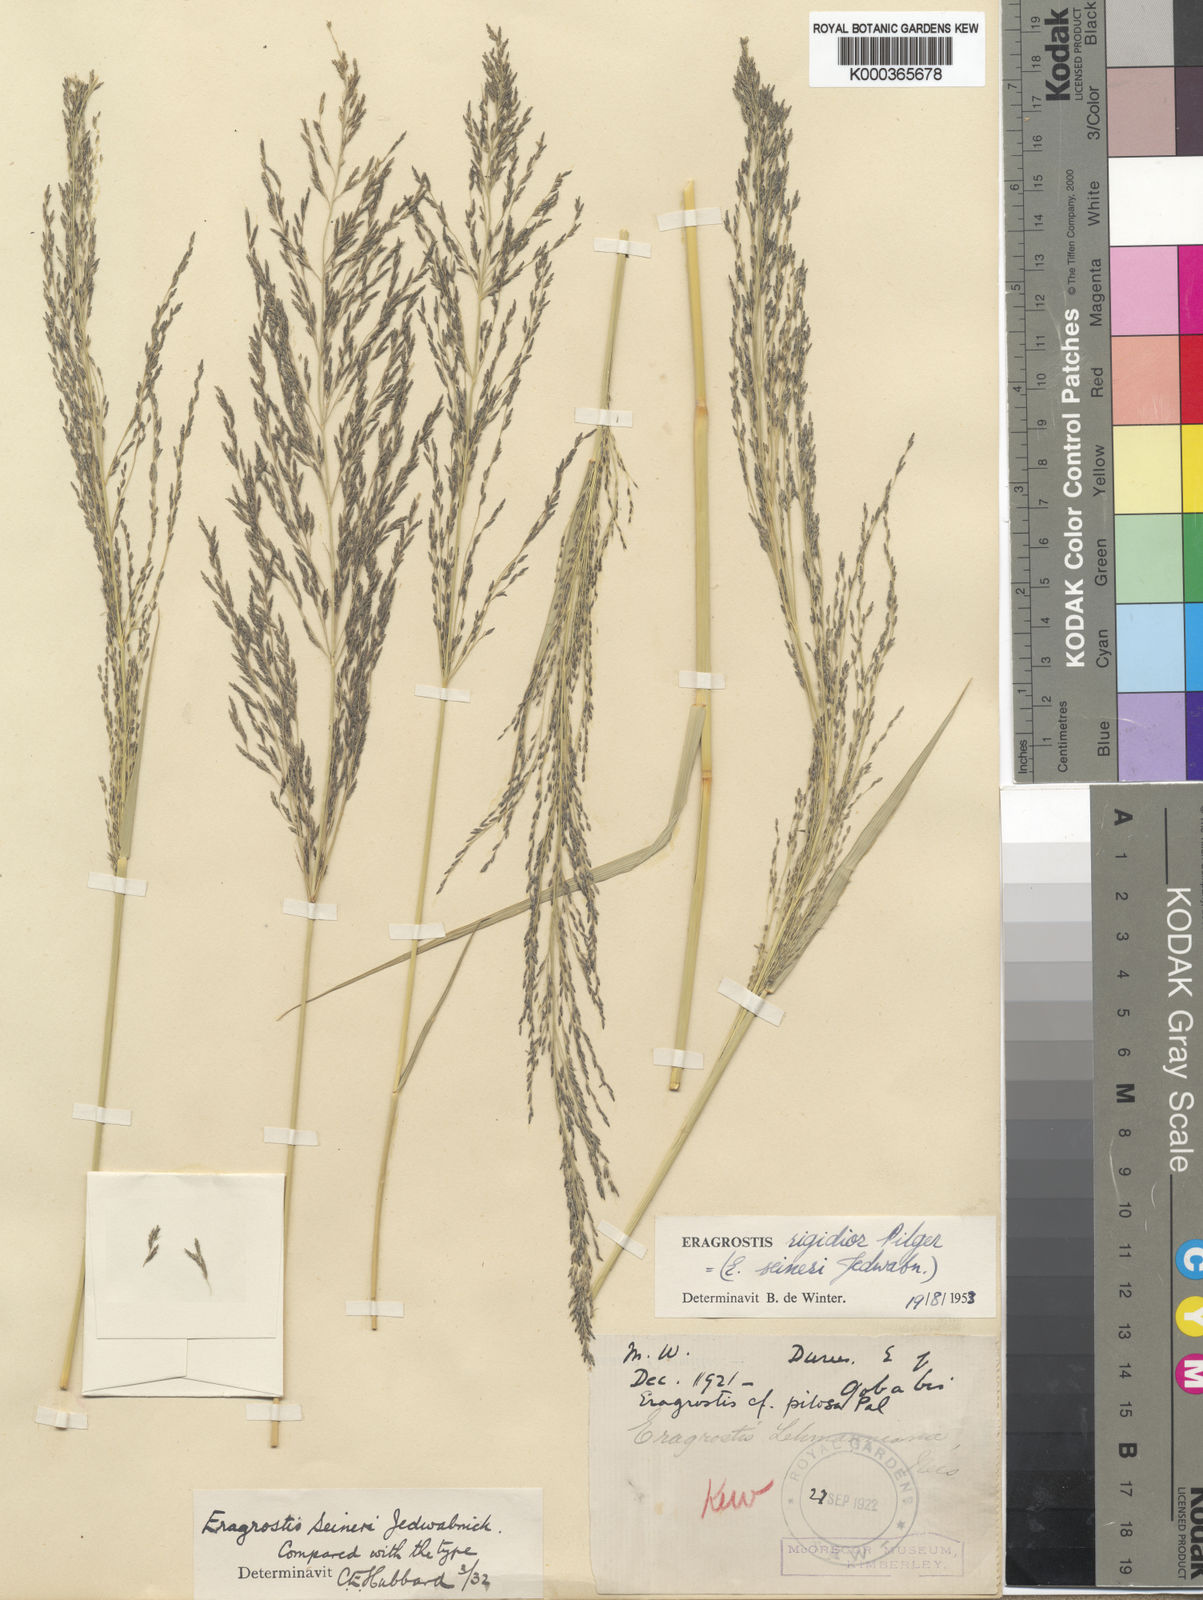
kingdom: Plantae
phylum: Tracheophyta
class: Liliopsida
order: Poales
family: Poaceae
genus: Eragrostis
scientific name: Eragrostis cylindriflora
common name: Cylinderflower lovegrass
